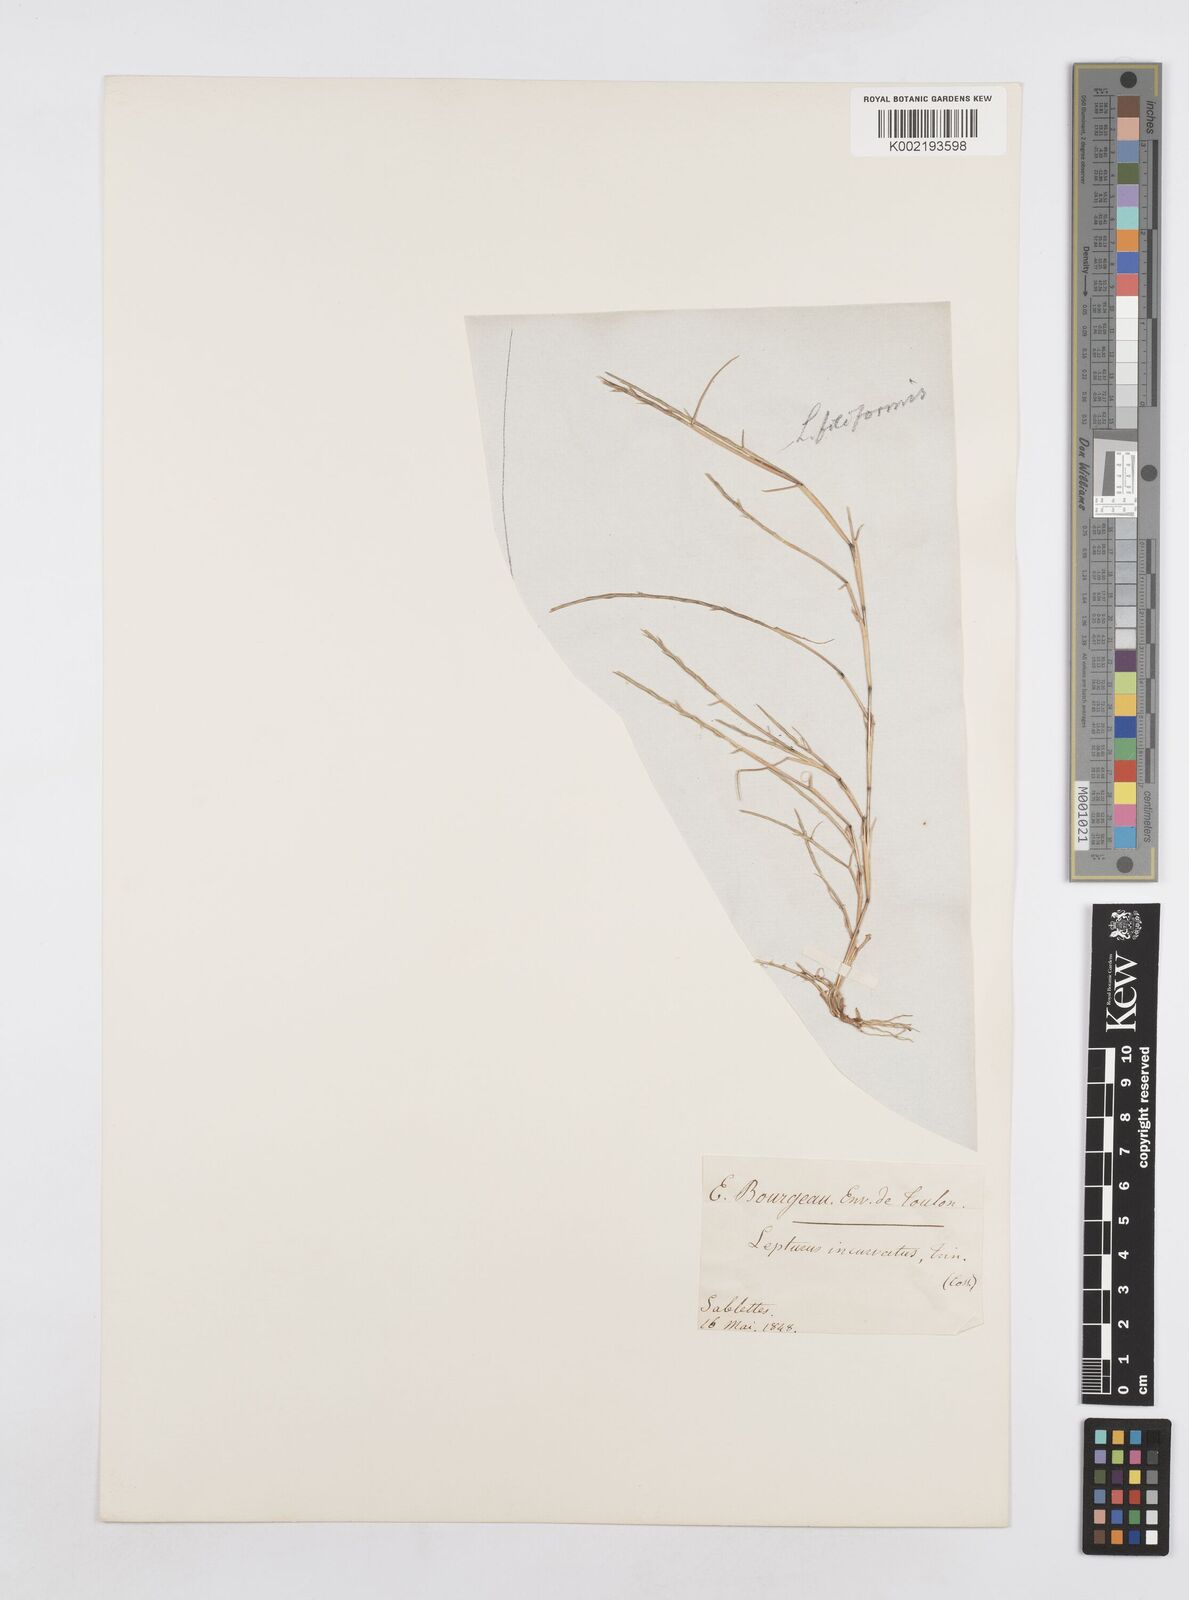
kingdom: Plantae
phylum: Tracheophyta
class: Liliopsida
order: Poales
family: Poaceae
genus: Parapholis
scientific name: Parapholis filiformis
